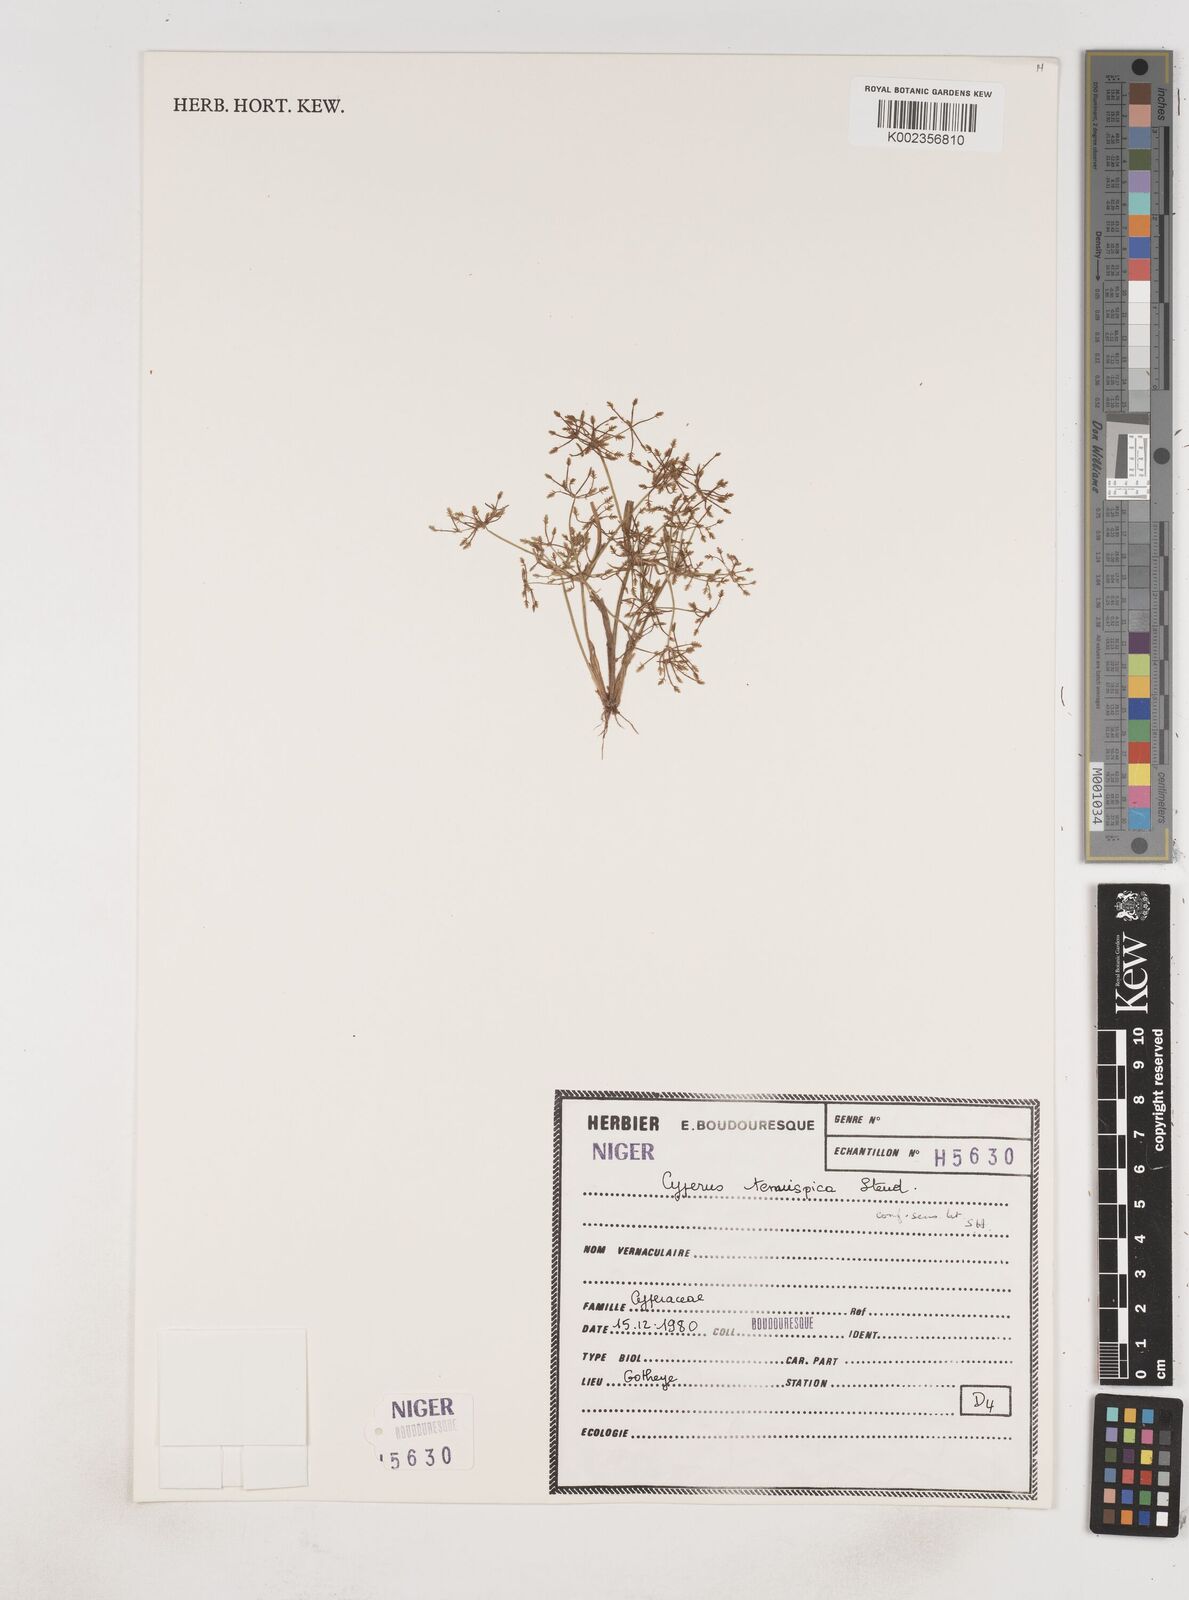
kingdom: Plantae
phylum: Tracheophyta
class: Liliopsida
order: Poales
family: Cyperaceae
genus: Cyperus
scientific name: Cyperus tenuispica
